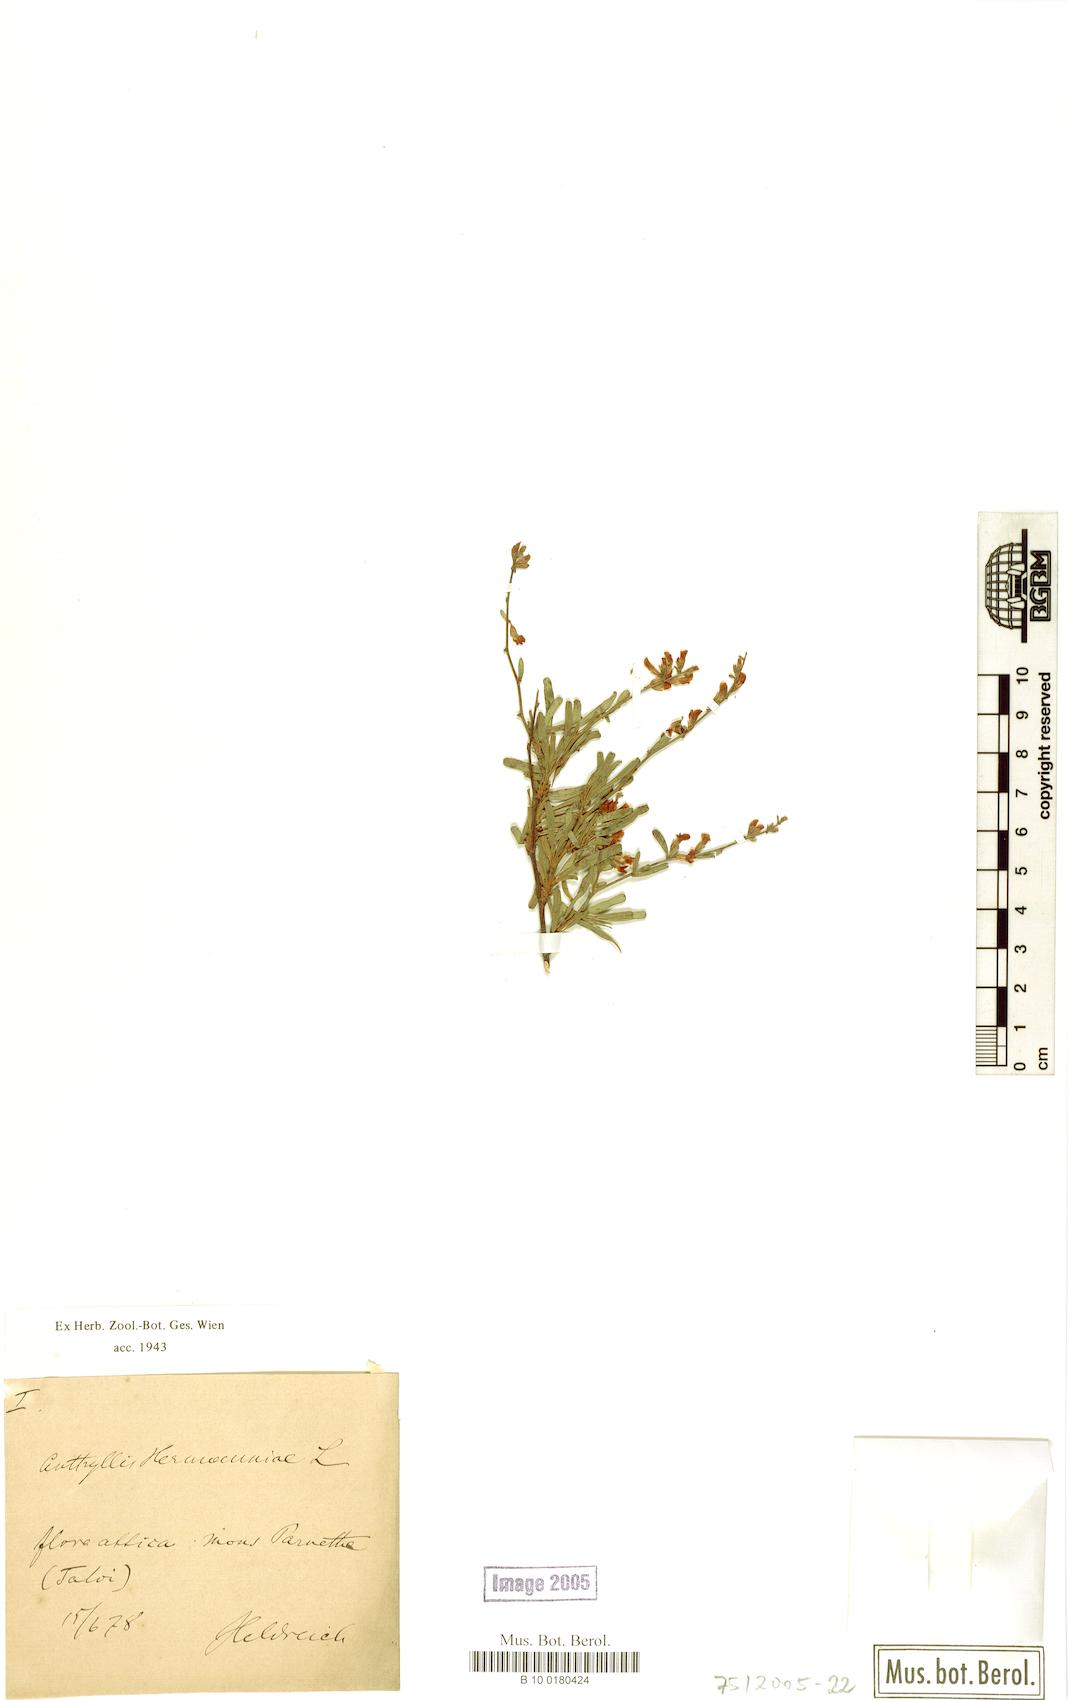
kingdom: Plantae
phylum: Tracheophyta
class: Magnoliopsida
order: Fabales
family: Fabaceae
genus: Anthyllis
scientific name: Anthyllis hermanniae
